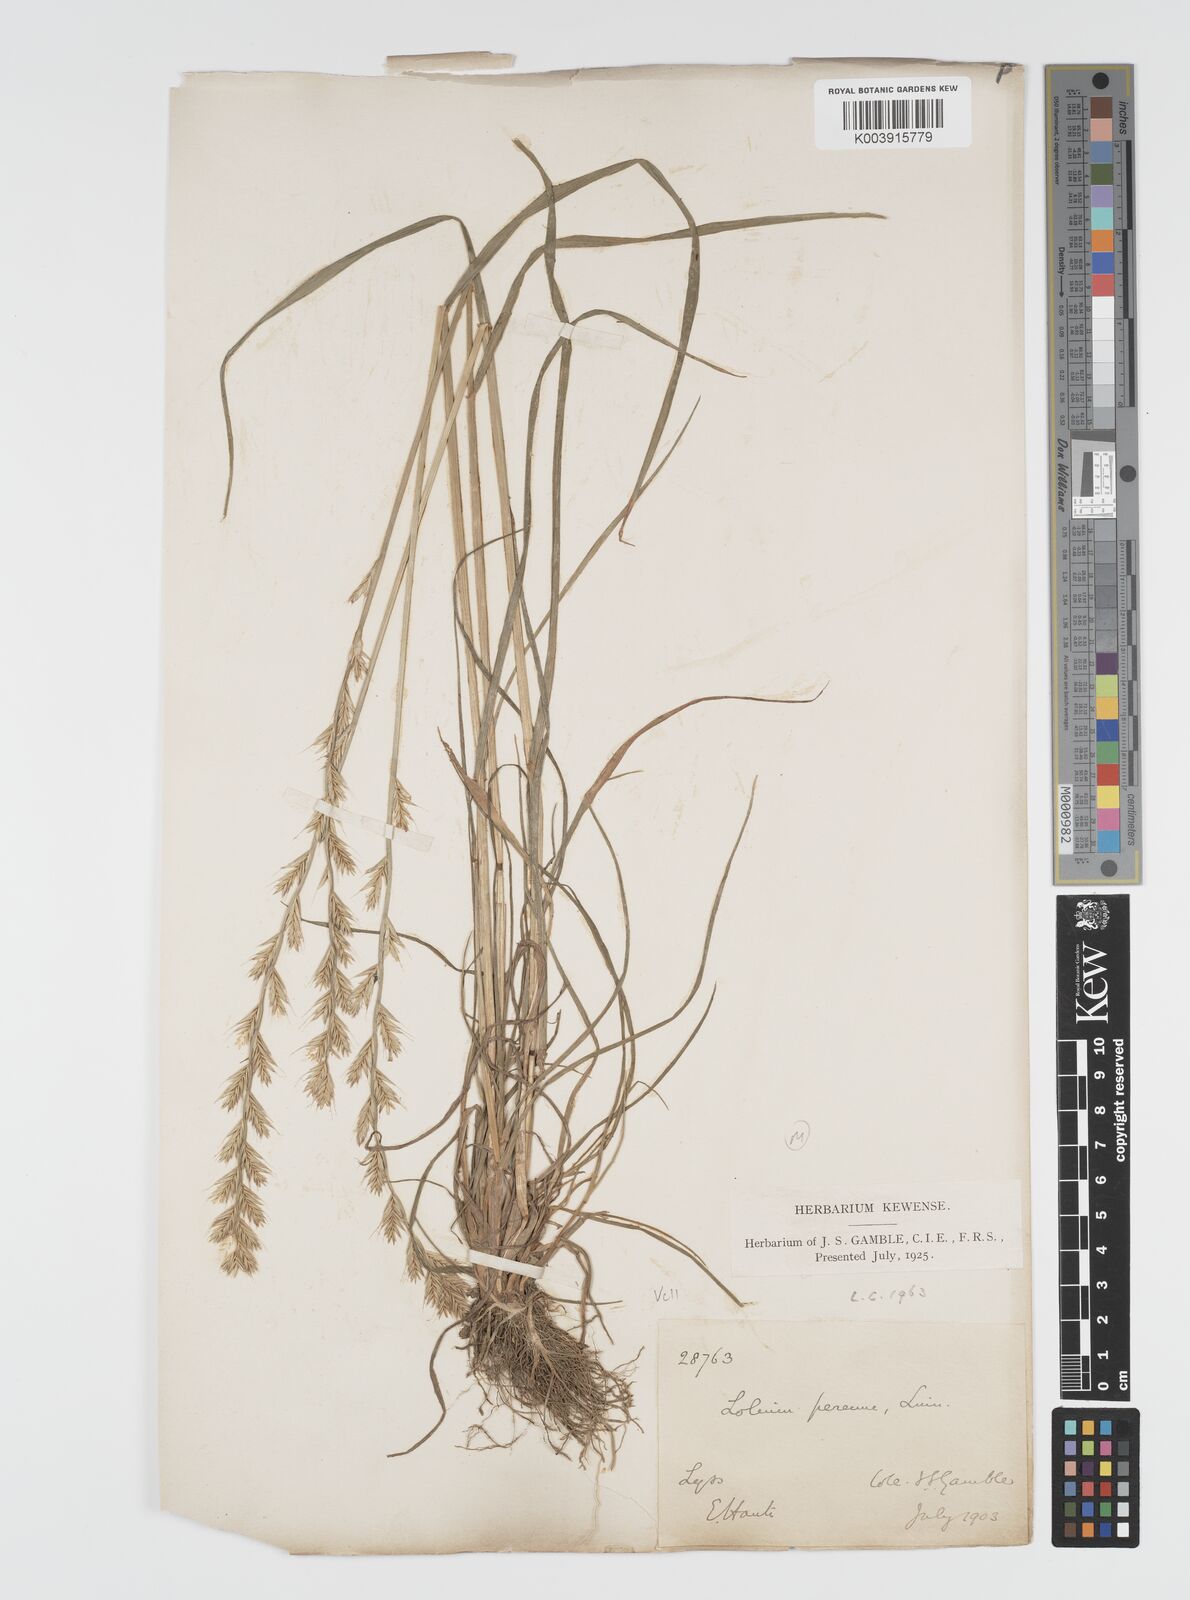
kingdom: Plantae
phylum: Tracheophyta
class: Liliopsida
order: Poales
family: Poaceae
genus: Lolium
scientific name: Lolium multiflorum
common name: Annual ryegrass
